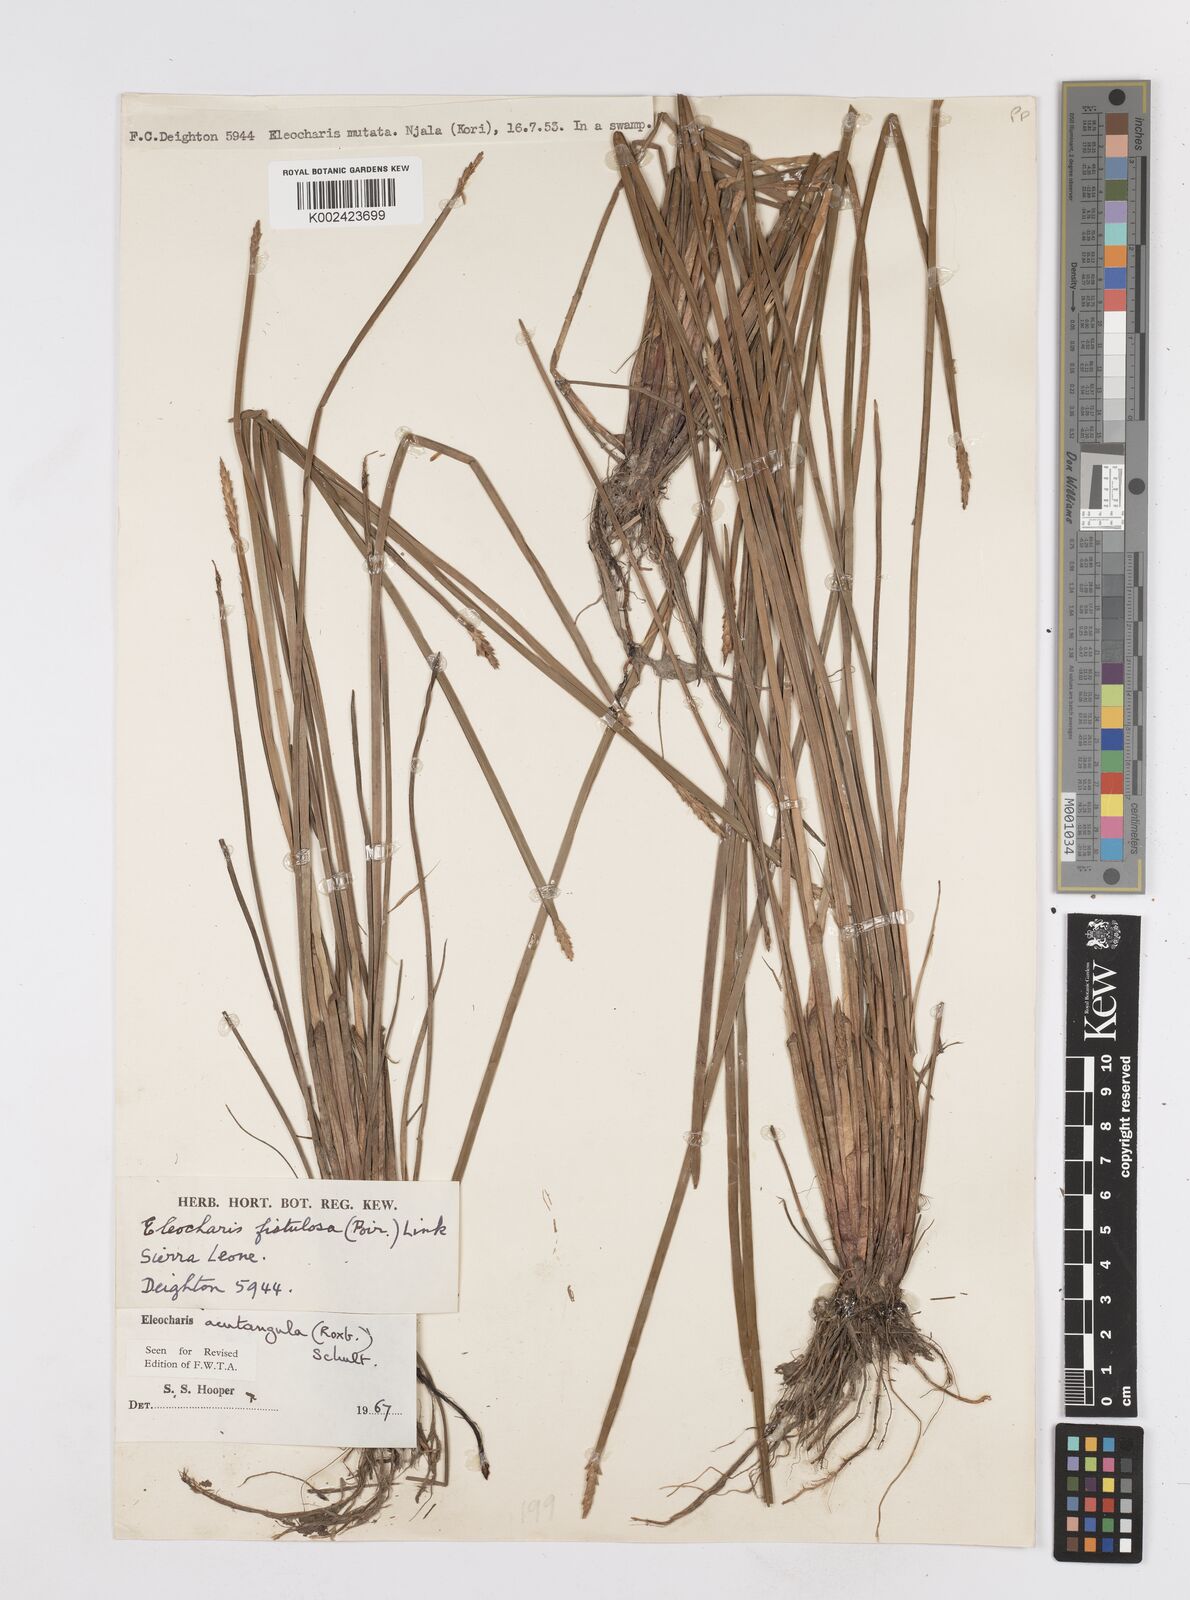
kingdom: Plantae
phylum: Tracheophyta
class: Liliopsida
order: Poales
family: Cyperaceae
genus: Eleocharis
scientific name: Eleocharis acutangula
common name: Acute spikerush
